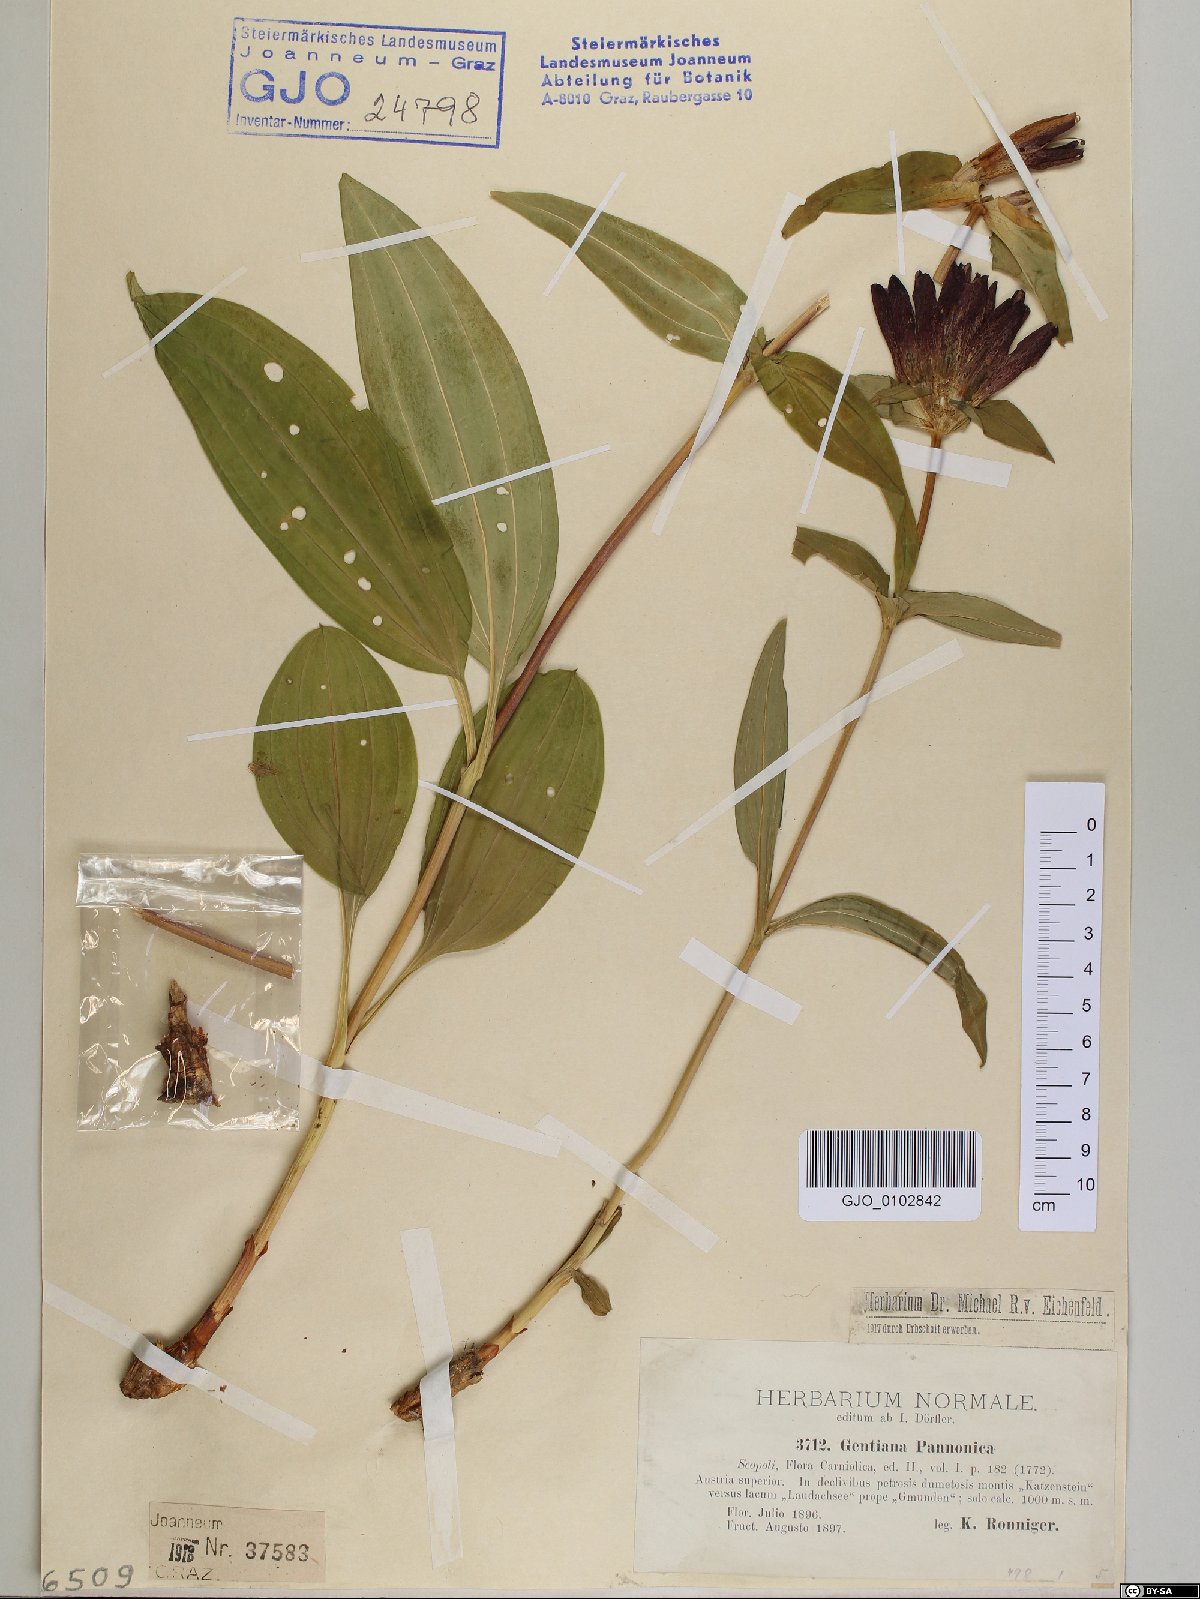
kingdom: Plantae
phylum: Tracheophyta
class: Magnoliopsida
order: Gentianales
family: Gentianaceae
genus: Gentiana
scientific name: Gentiana pannonica
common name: Hungarian gentian
